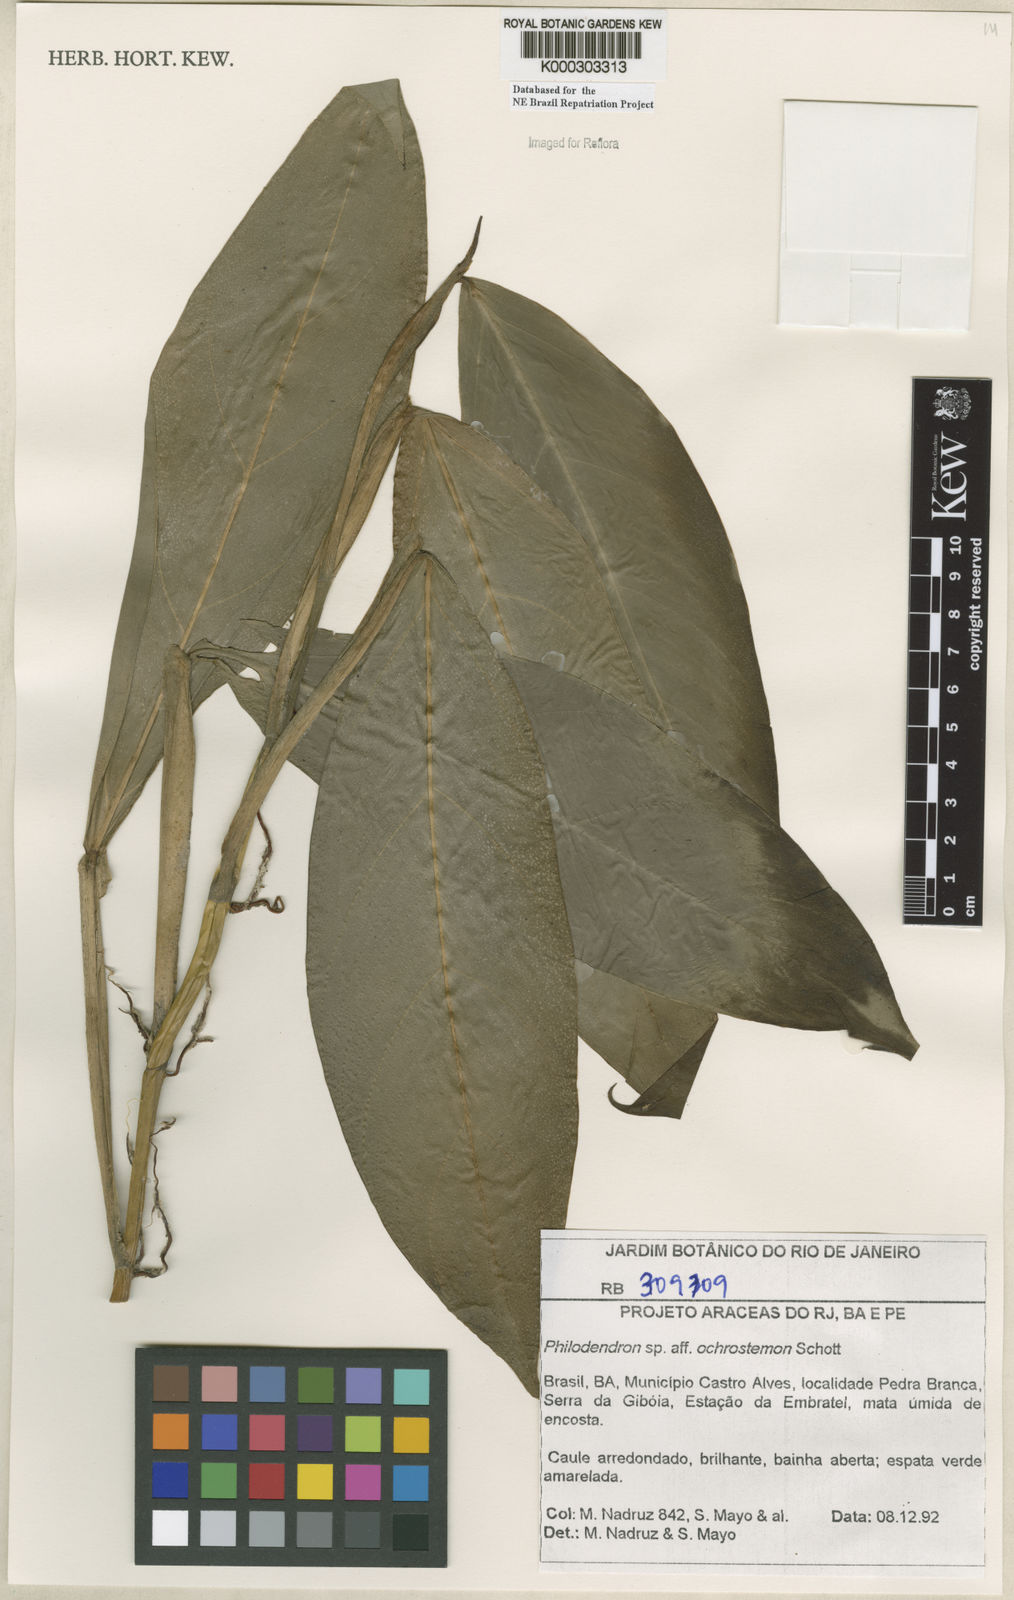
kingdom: Plantae
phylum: Tracheophyta
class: Liliopsida
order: Alismatales
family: Araceae
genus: Philodendron
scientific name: Philodendron ochrostemon
